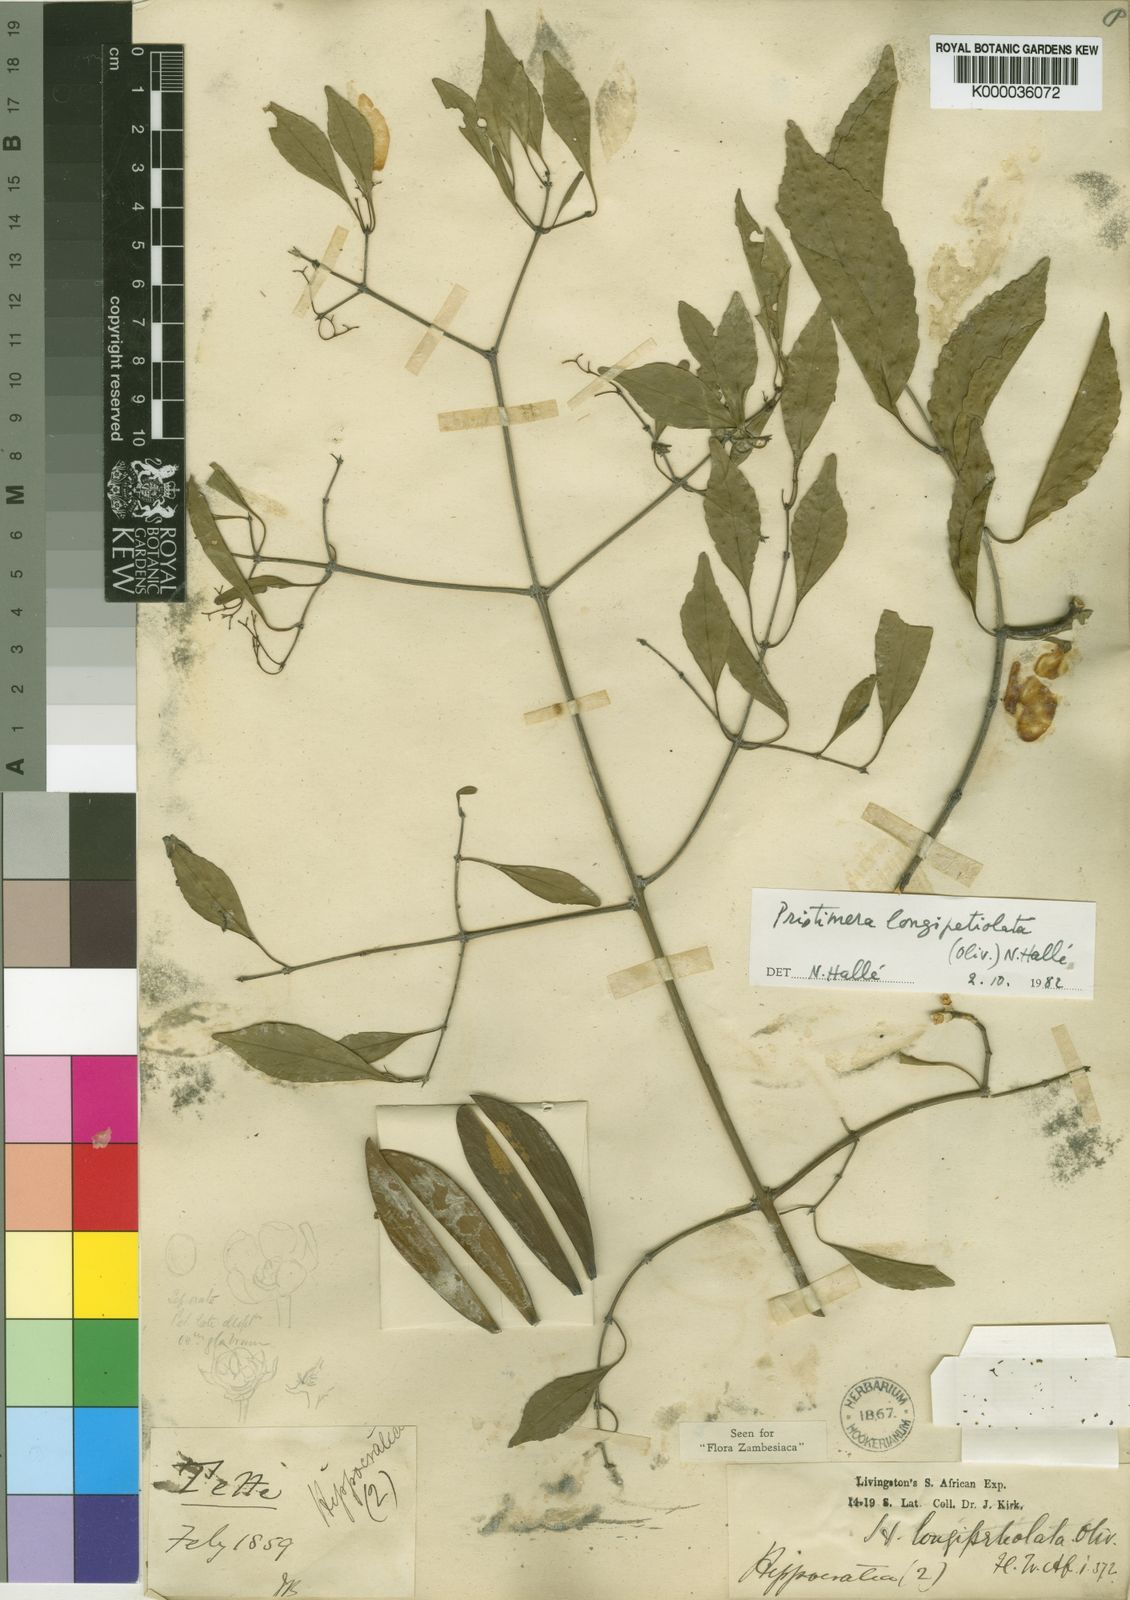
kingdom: Plantae
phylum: Tracheophyta
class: Magnoliopsida
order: Celastrales
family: Celastraceae
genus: Pristimera
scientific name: Pristimera
